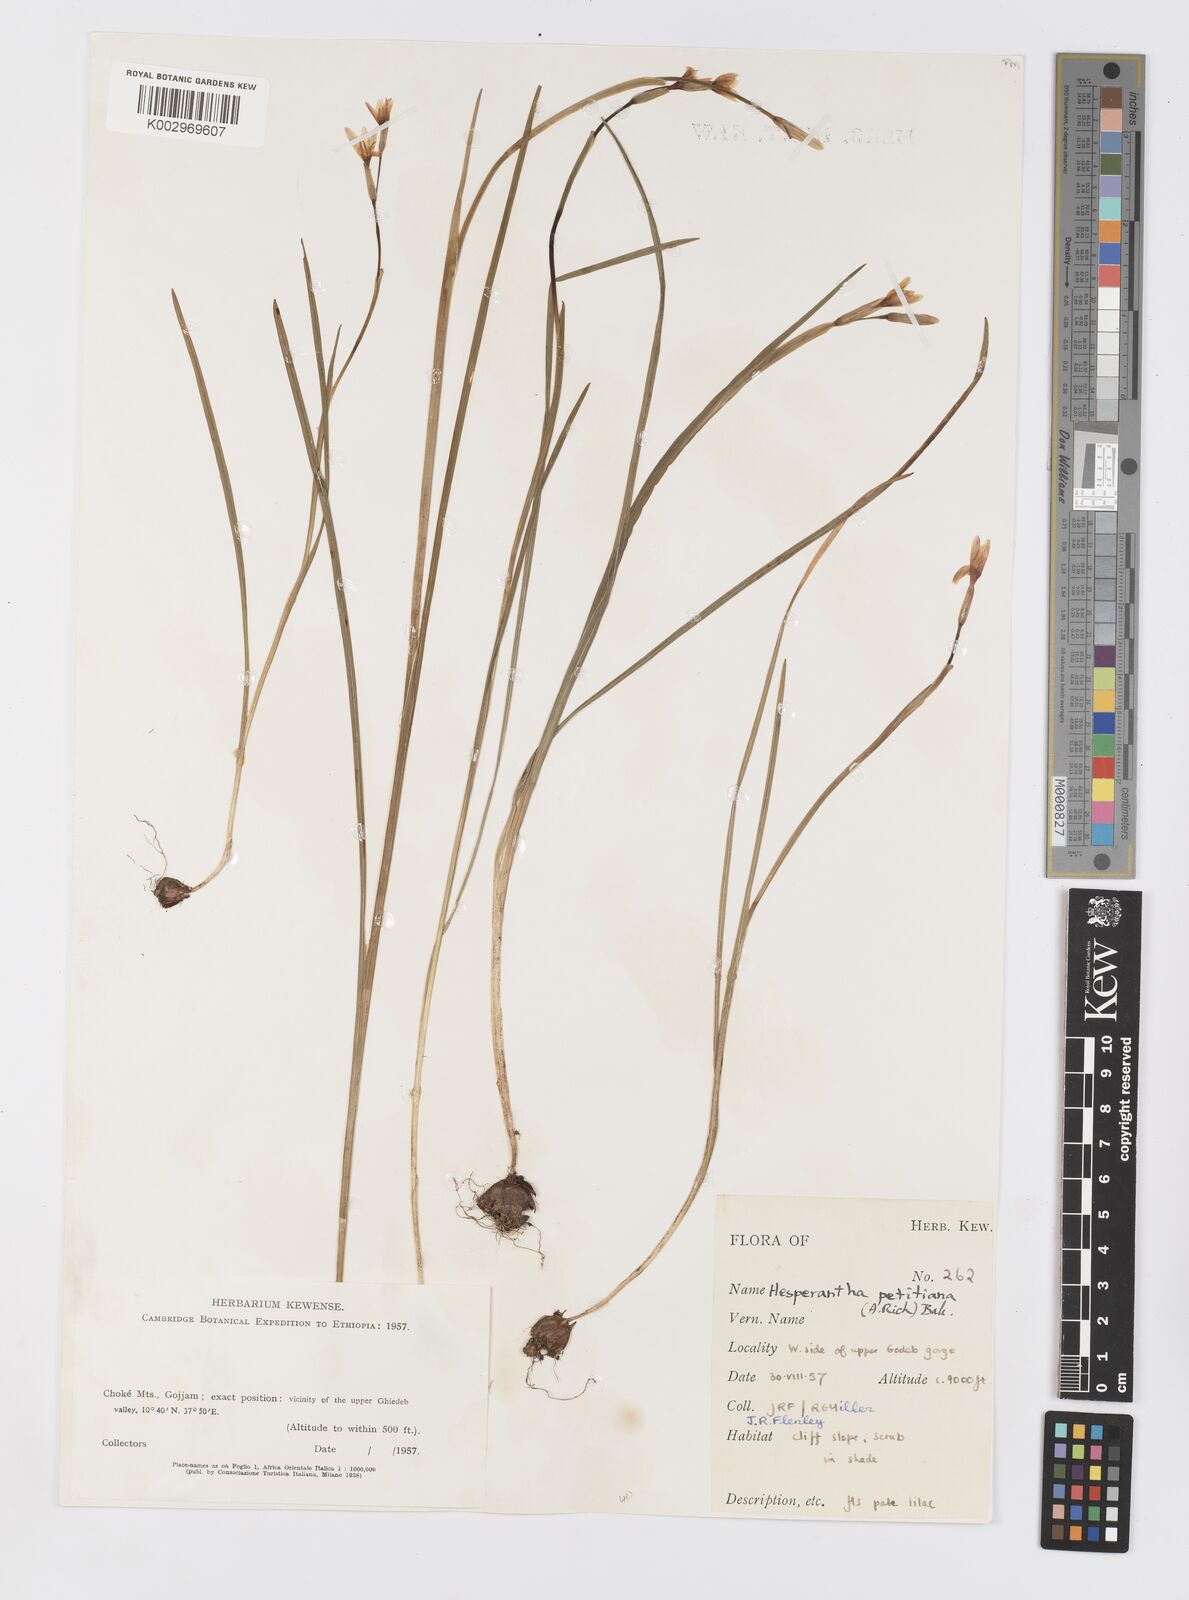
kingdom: Plantae
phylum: Tracheophyta
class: Liliopsida
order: Asparagales
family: Iridaceae
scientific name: Iridaceae
